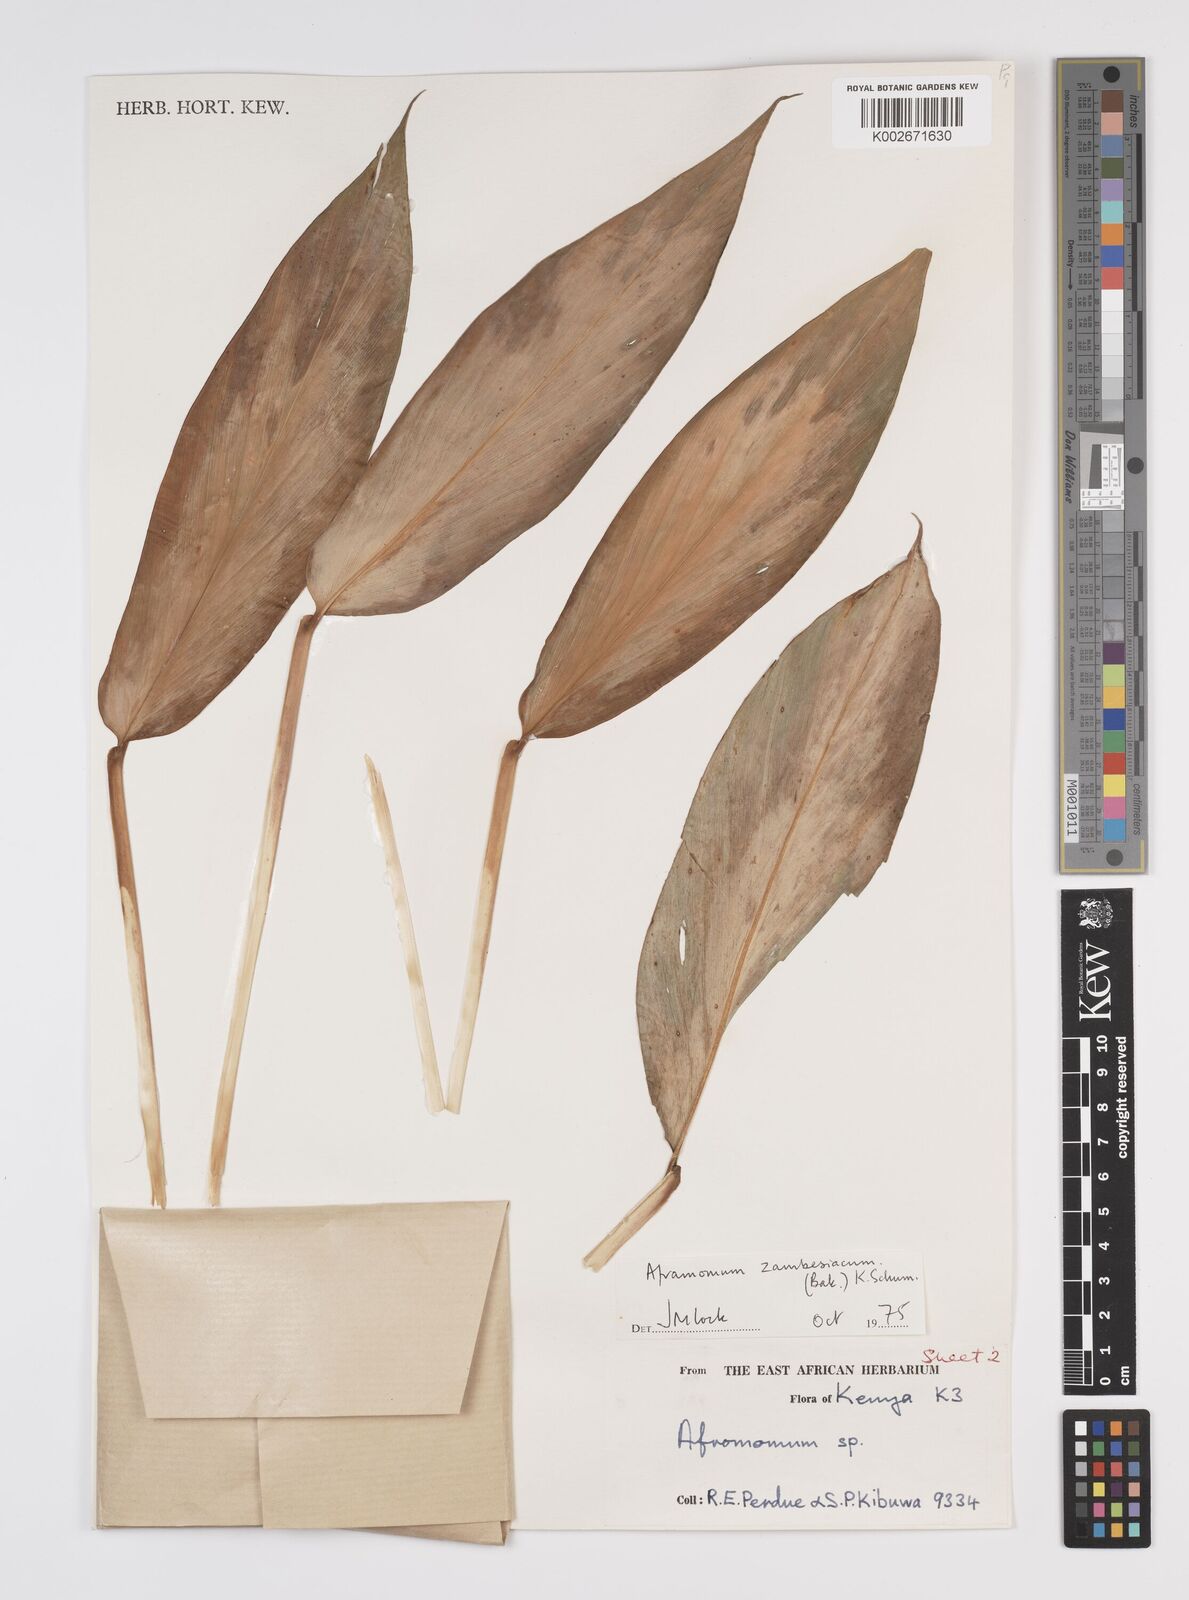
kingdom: Plantae
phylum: Tracheophyta
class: Liliopsida
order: Zingiberales
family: Zingiberaceae
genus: Aframomum
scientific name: Aframomum zambesiacum
